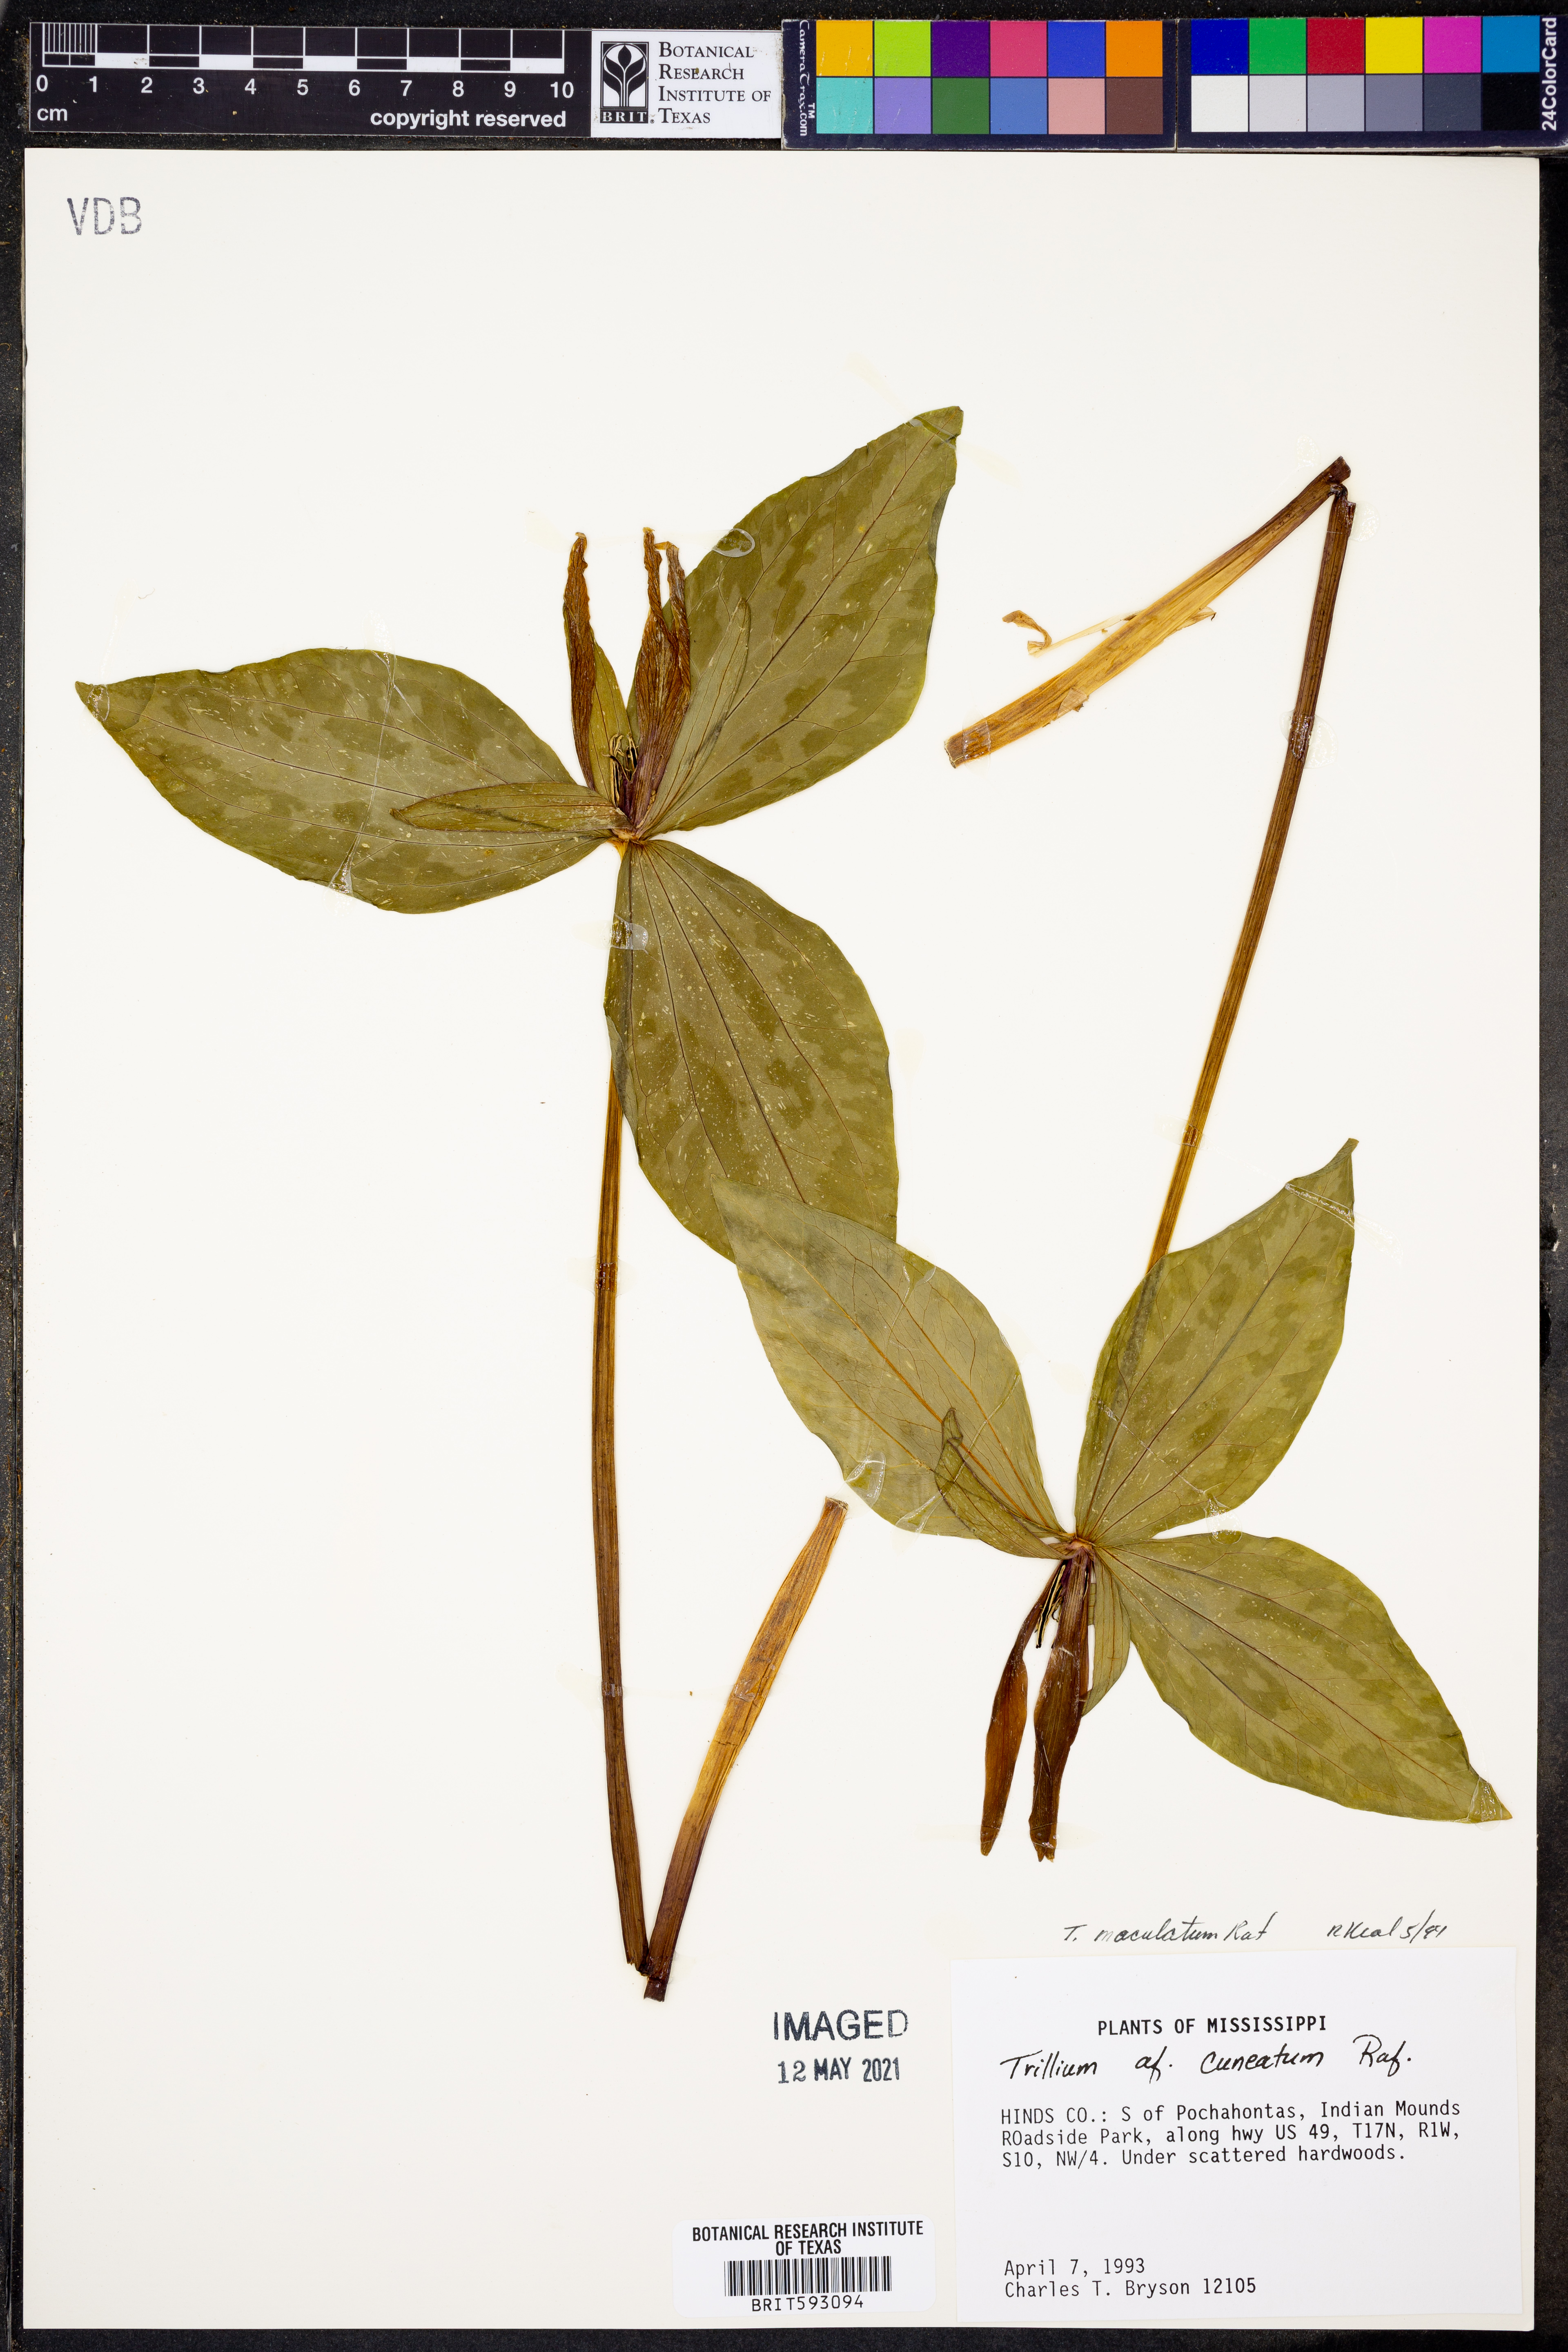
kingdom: Plantae
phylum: Tracheophyta
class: Liliopsida
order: Liliales
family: Melanthiaceae
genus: Trillium
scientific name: Trillium maculatum
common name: Mottled trillium
